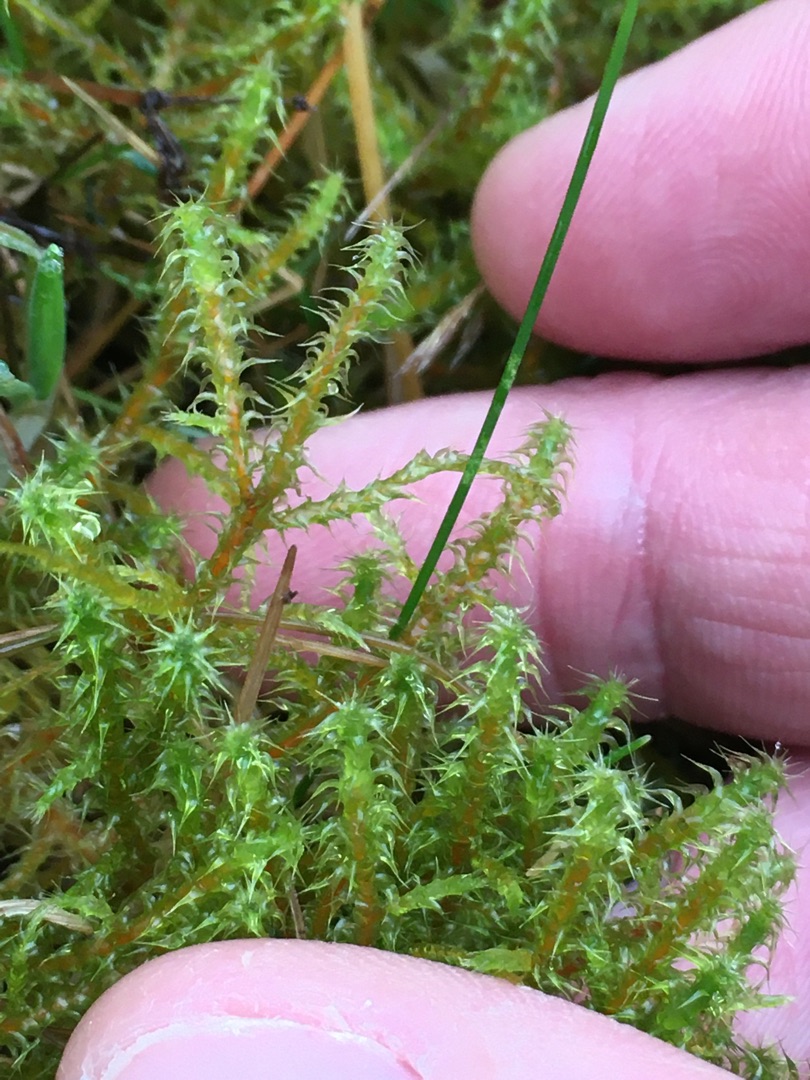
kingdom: Plantae
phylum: Bryophyta
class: Bryopsida
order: Hypnales
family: Hylocomiaceae
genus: Rhytidiadelphus
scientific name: Rhytidiadelphus squarrosus
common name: Plæne-kransemos
